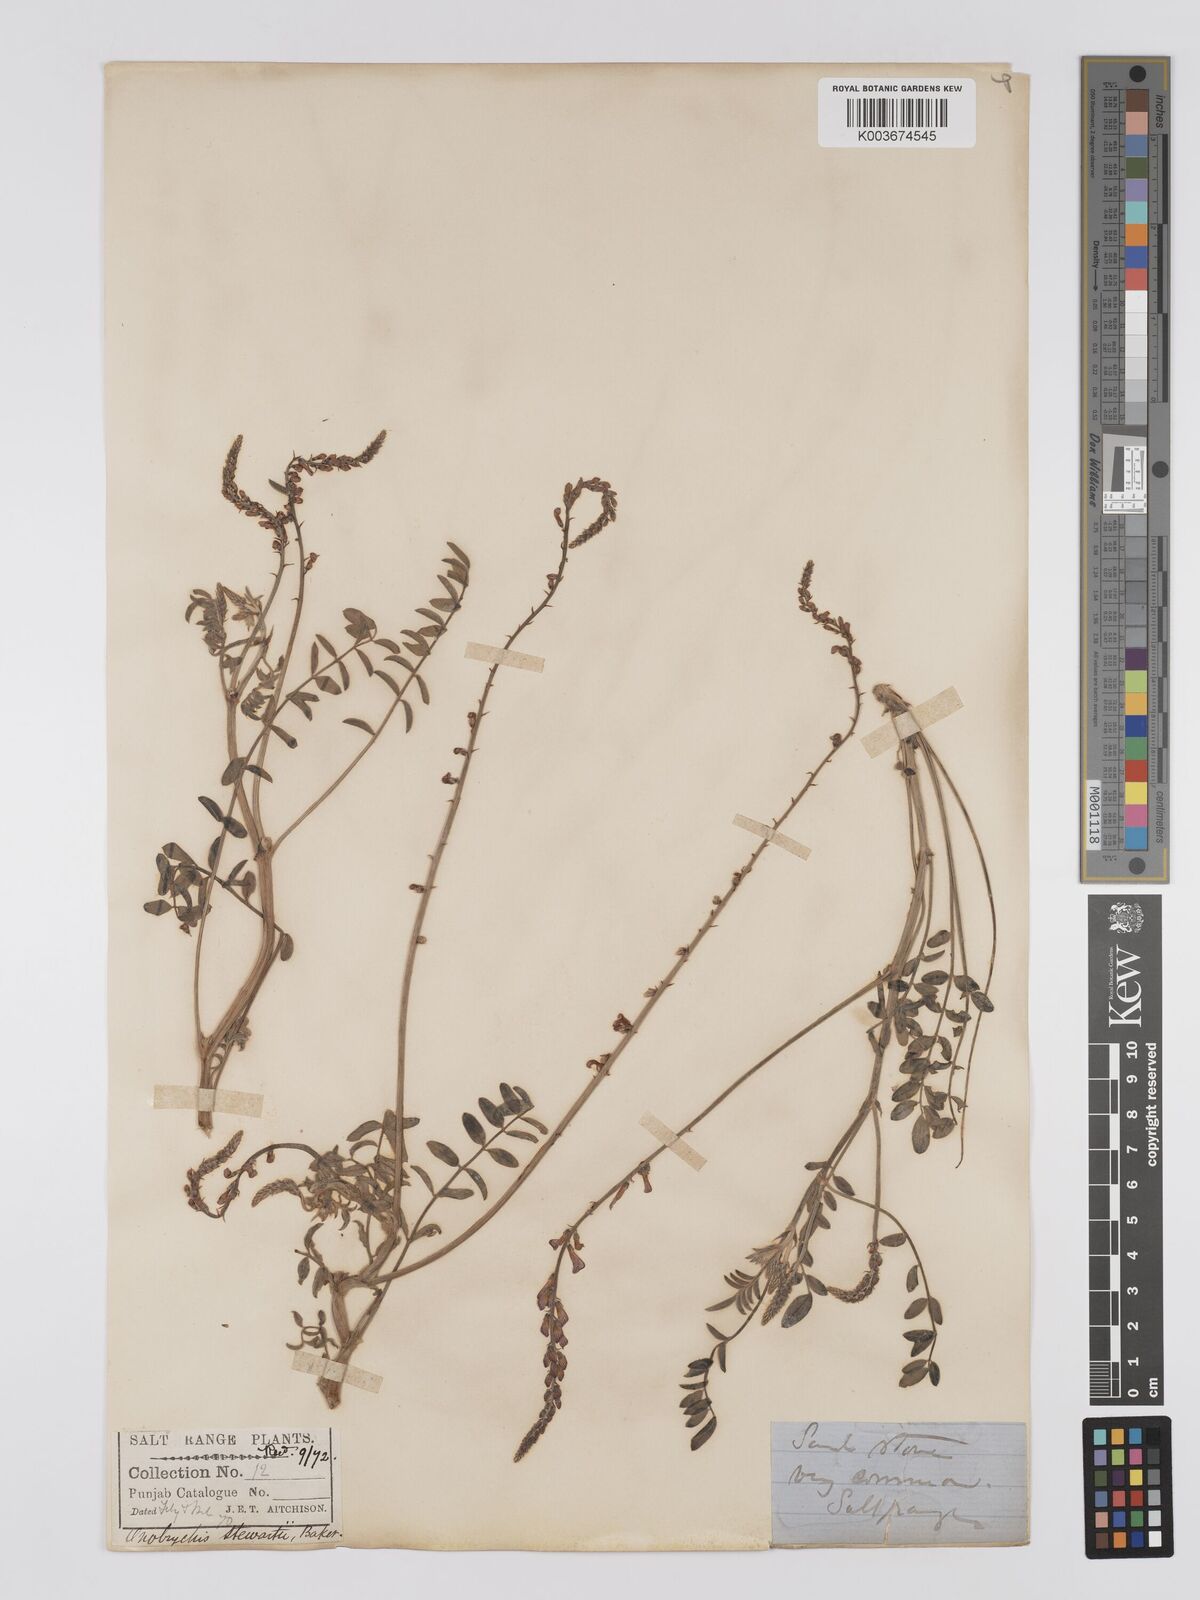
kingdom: Plantae
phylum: Tracheophyta
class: Magnoliopsida
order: Fabales
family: Fabaceae
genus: Onobrychis
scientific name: Onobrychis stewartii
